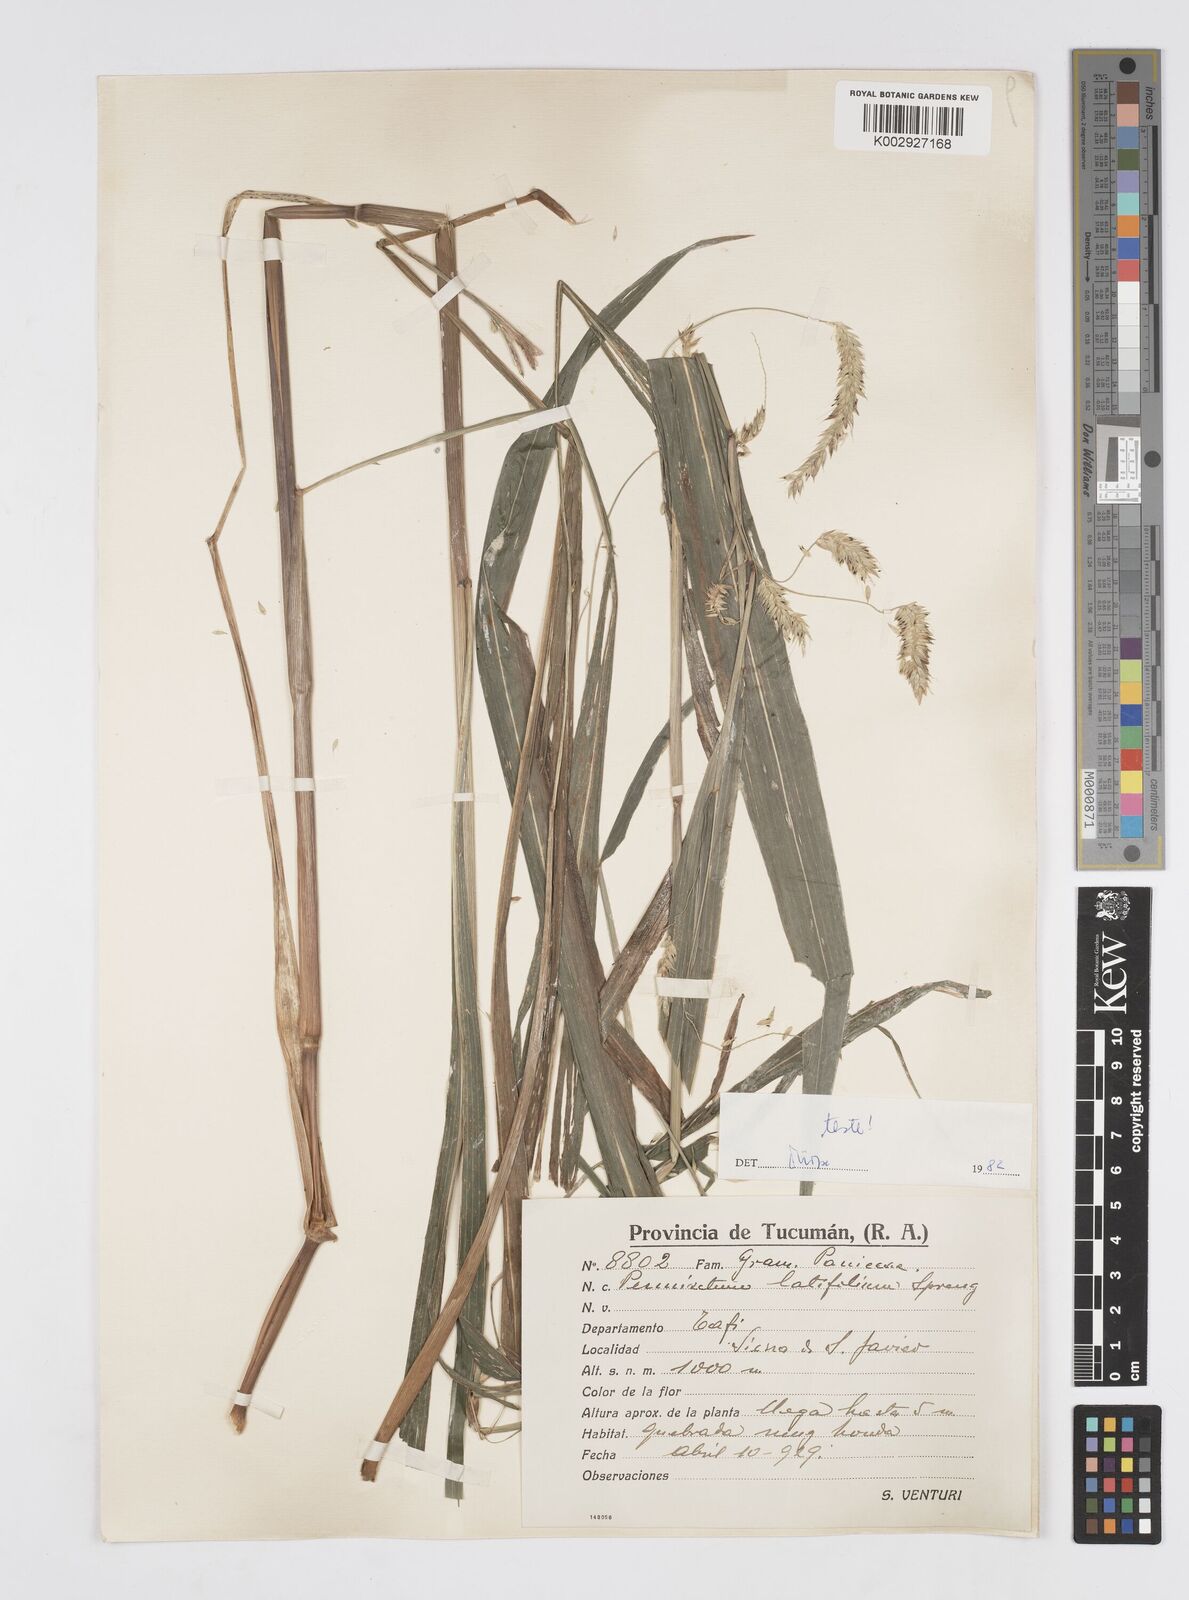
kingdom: Plantae
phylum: Tracheophyta
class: Liliopsida
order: Poales
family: Poaceae
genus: Cenchrus
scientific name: Cenchrus latifolius
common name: Sandbur
